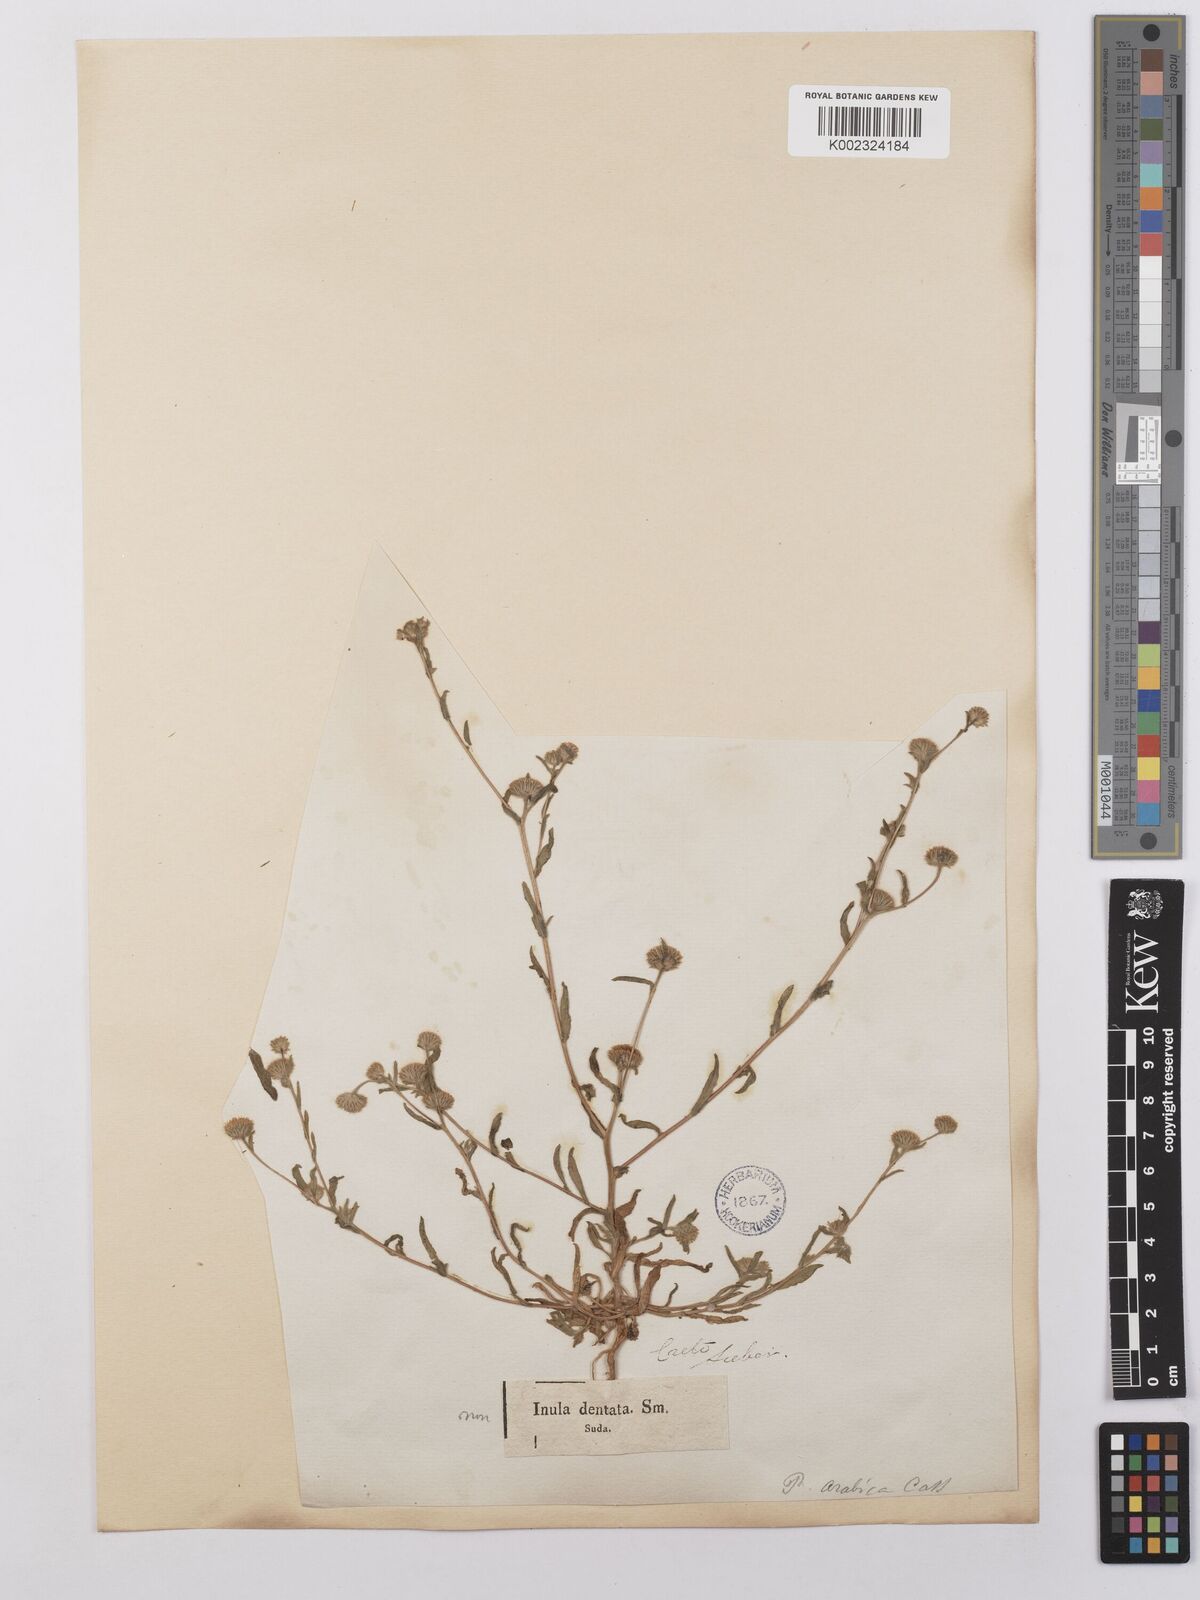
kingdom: Plantae
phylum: Tracheophyta
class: Magnoliopsida
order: Asterales
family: Asteraceae
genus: Pulicaria
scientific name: Pulicaria arabica
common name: Ladies' false fleabane
